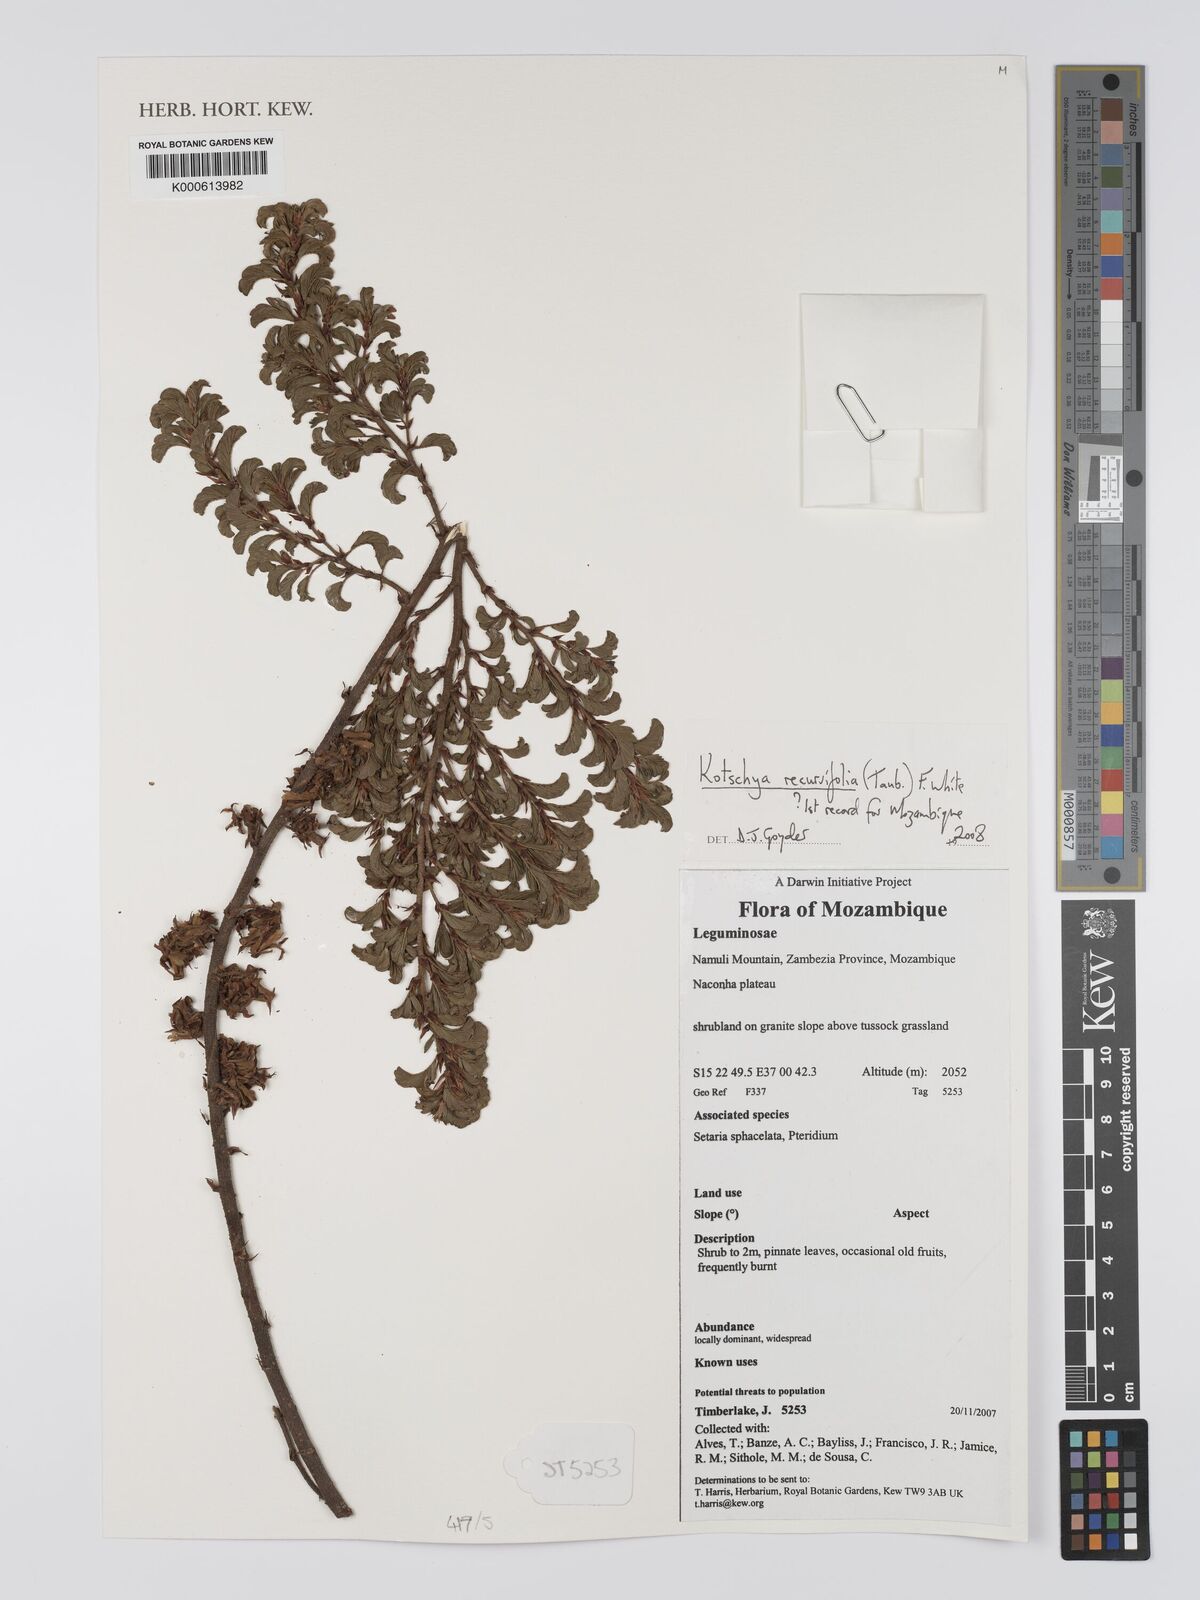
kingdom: Plantae
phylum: Tracheophyta
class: Magnoliopsida
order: Fabales
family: Fabaceae
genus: Kotschya
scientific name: Kotschya recurvifolia
